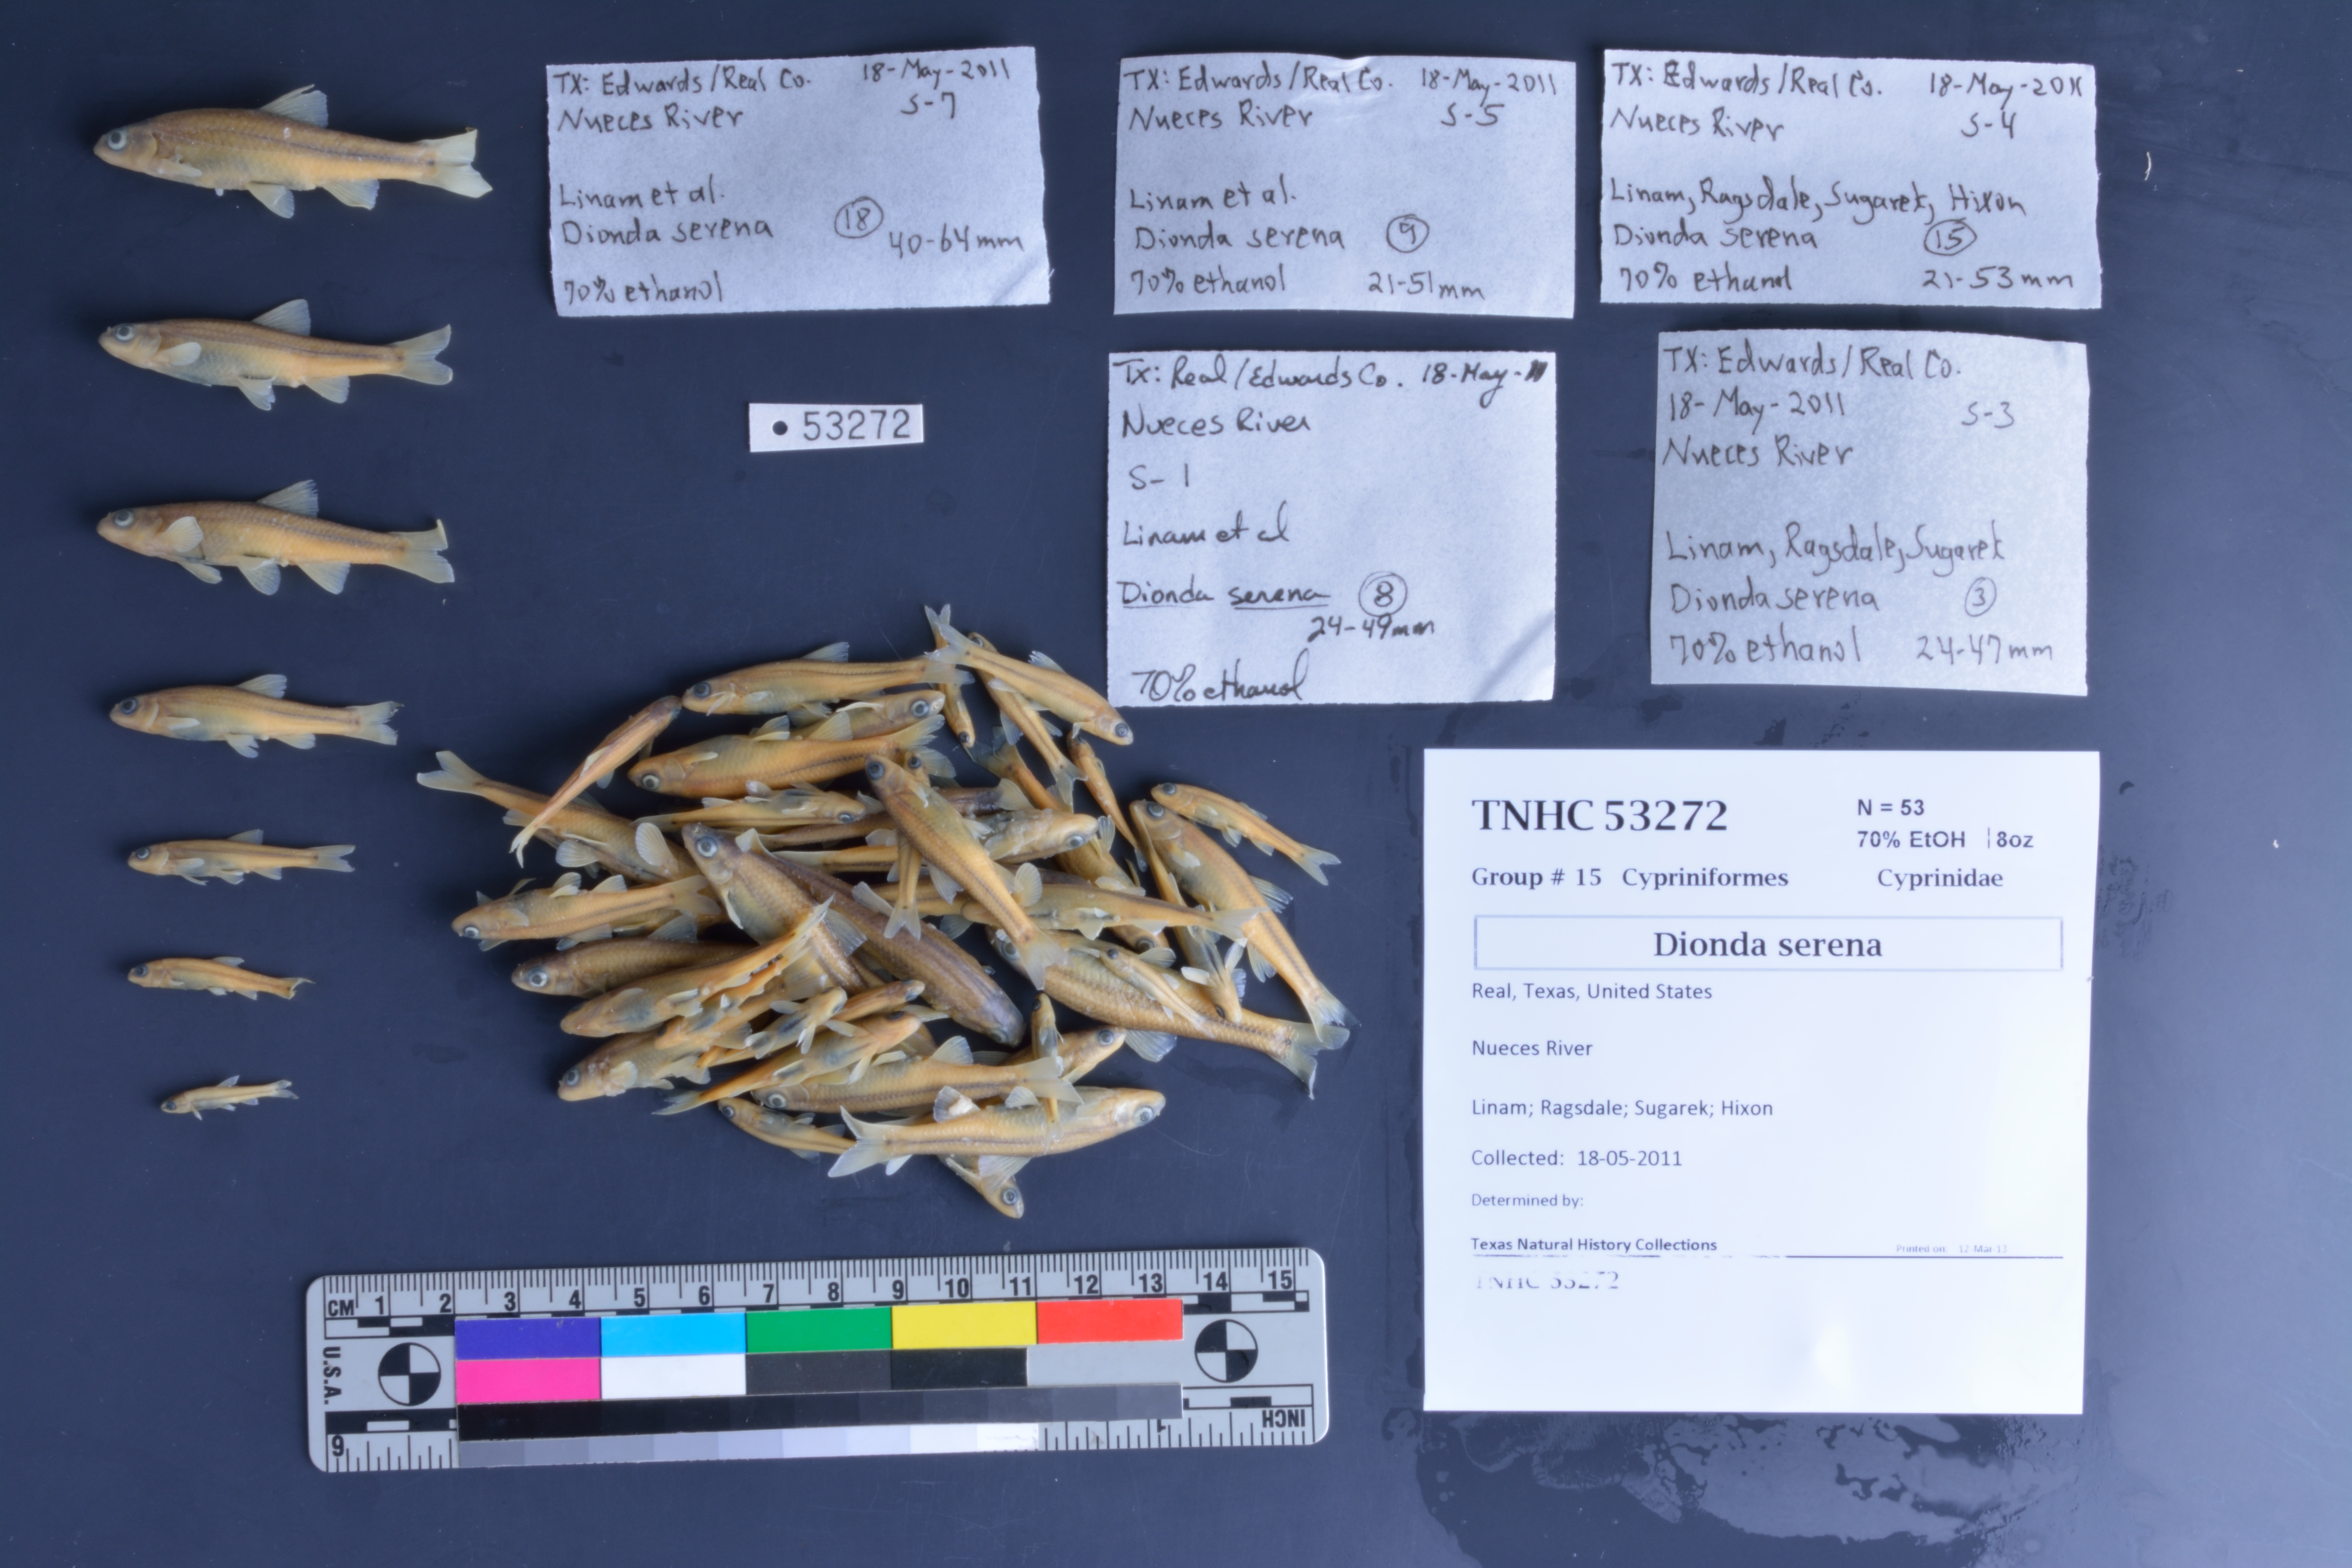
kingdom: Animalia
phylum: Chordata
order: Cypriniformes
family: Cyprinidae
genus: Dionda
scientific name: Dionda serena
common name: Nueces roundnose minnow
